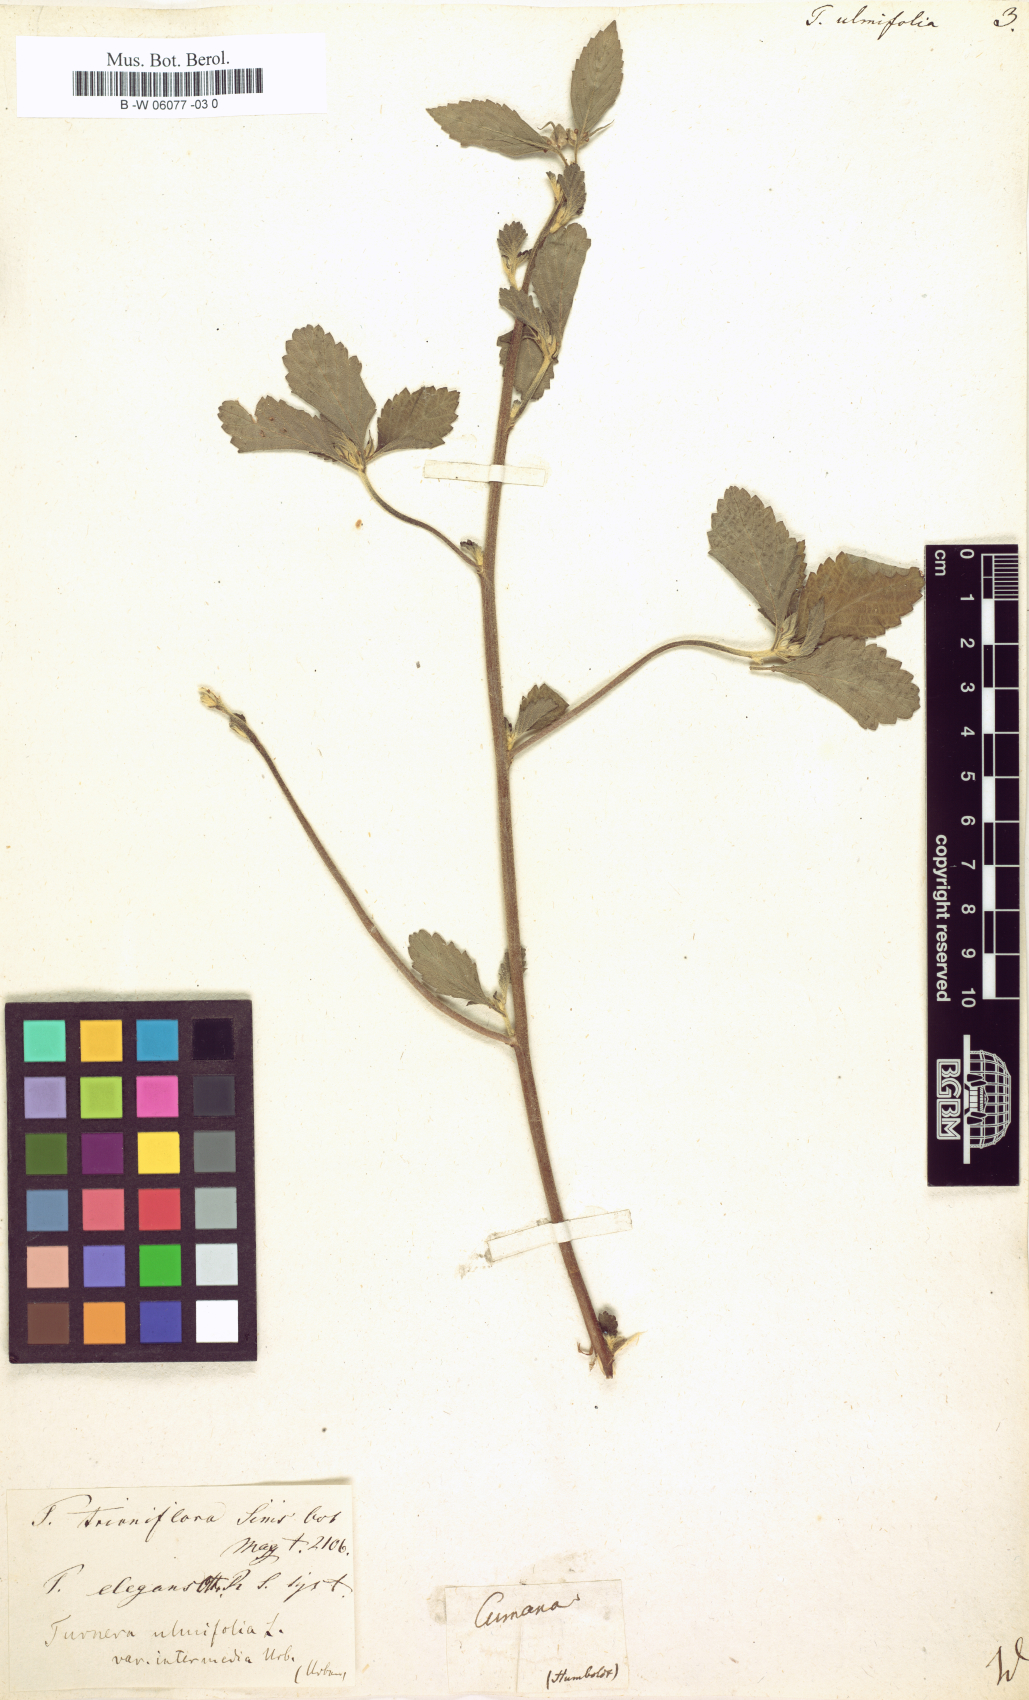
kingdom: Plantae
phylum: Tracheophyta
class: Magnoliopsida
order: Malpighiales
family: Turneraceae
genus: Turnera
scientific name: Turnera ulmifolia
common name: Ramgoat dashalong
